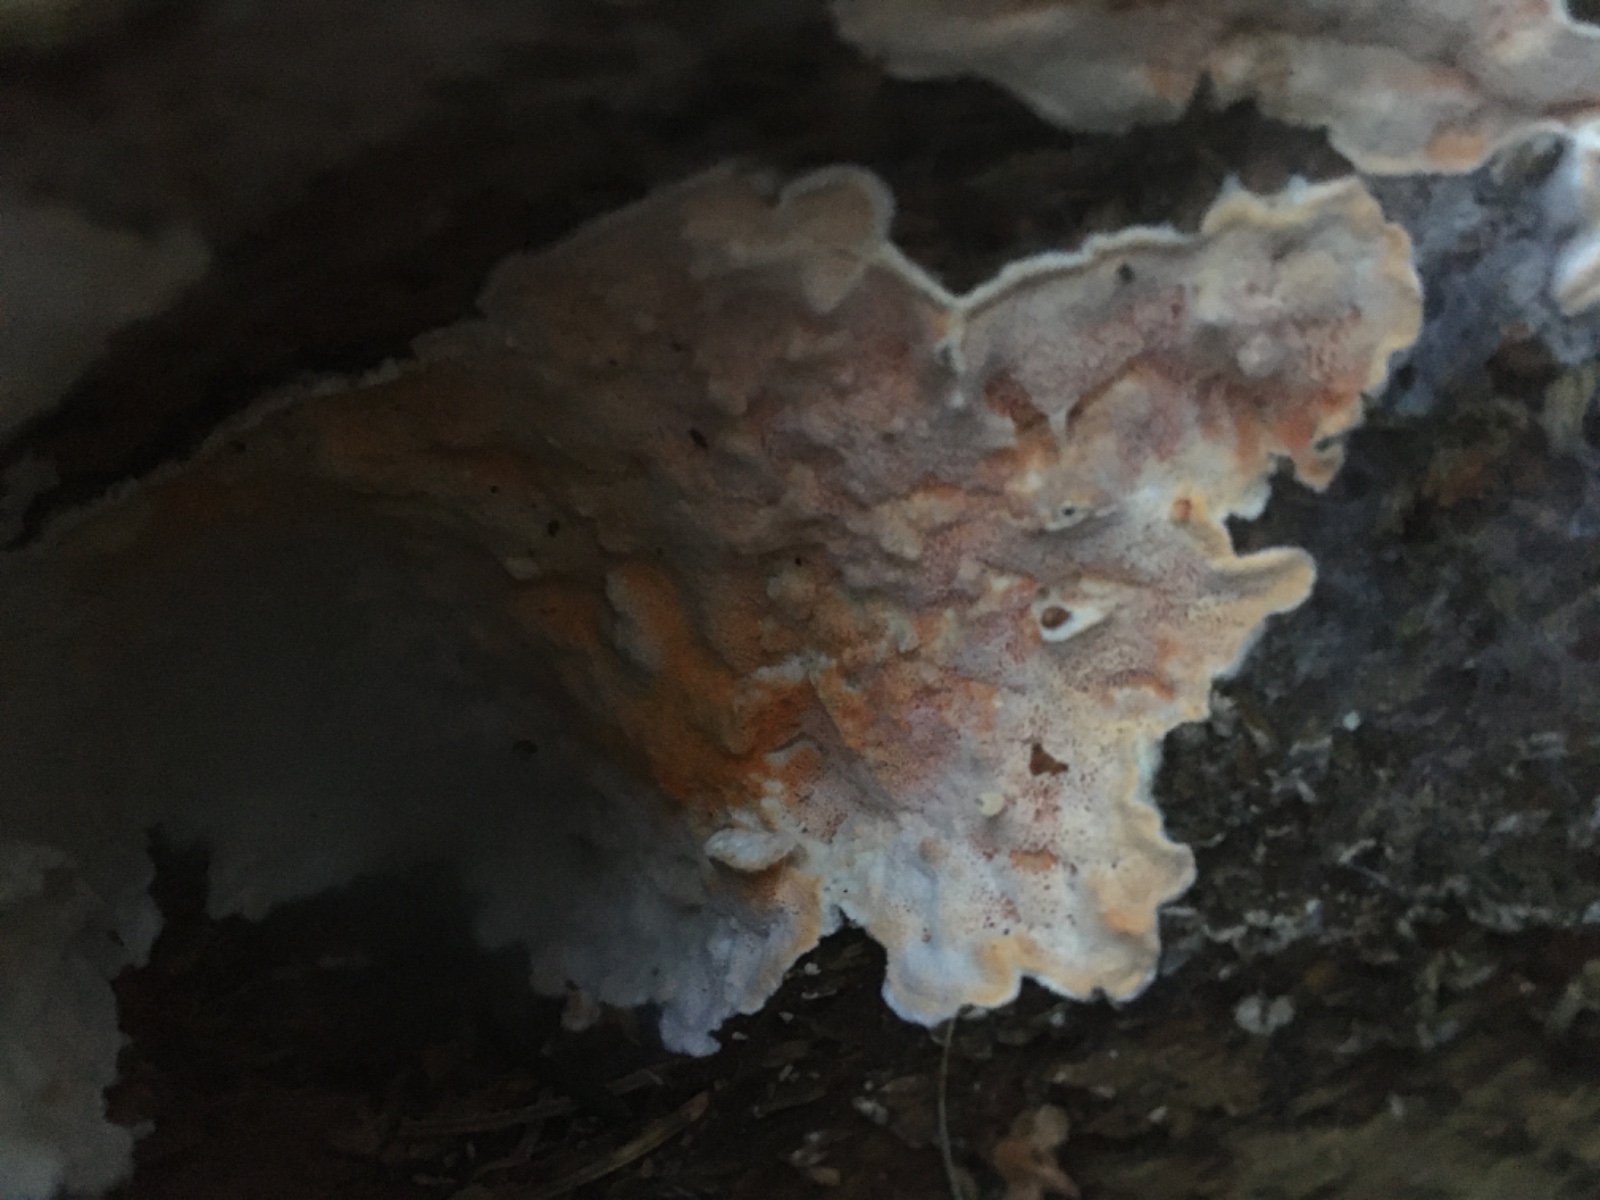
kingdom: Fungi
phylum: Basidiomycota
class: Agaricomycetes
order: Polyporales
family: Incrustoporiaceae
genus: Skeletocutis
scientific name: Skeletocutis amorpha
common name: orange krystalporesvamp
